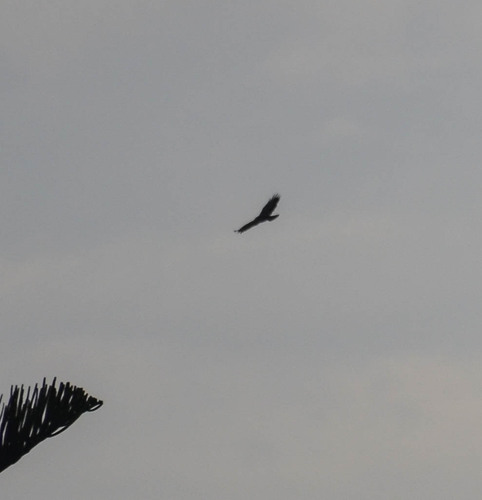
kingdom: Animalia
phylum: Chordata
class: Aves
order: Accipitriformes
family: Accipitridae
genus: Buteo
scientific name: Buteo buteo
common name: Common buzzard
